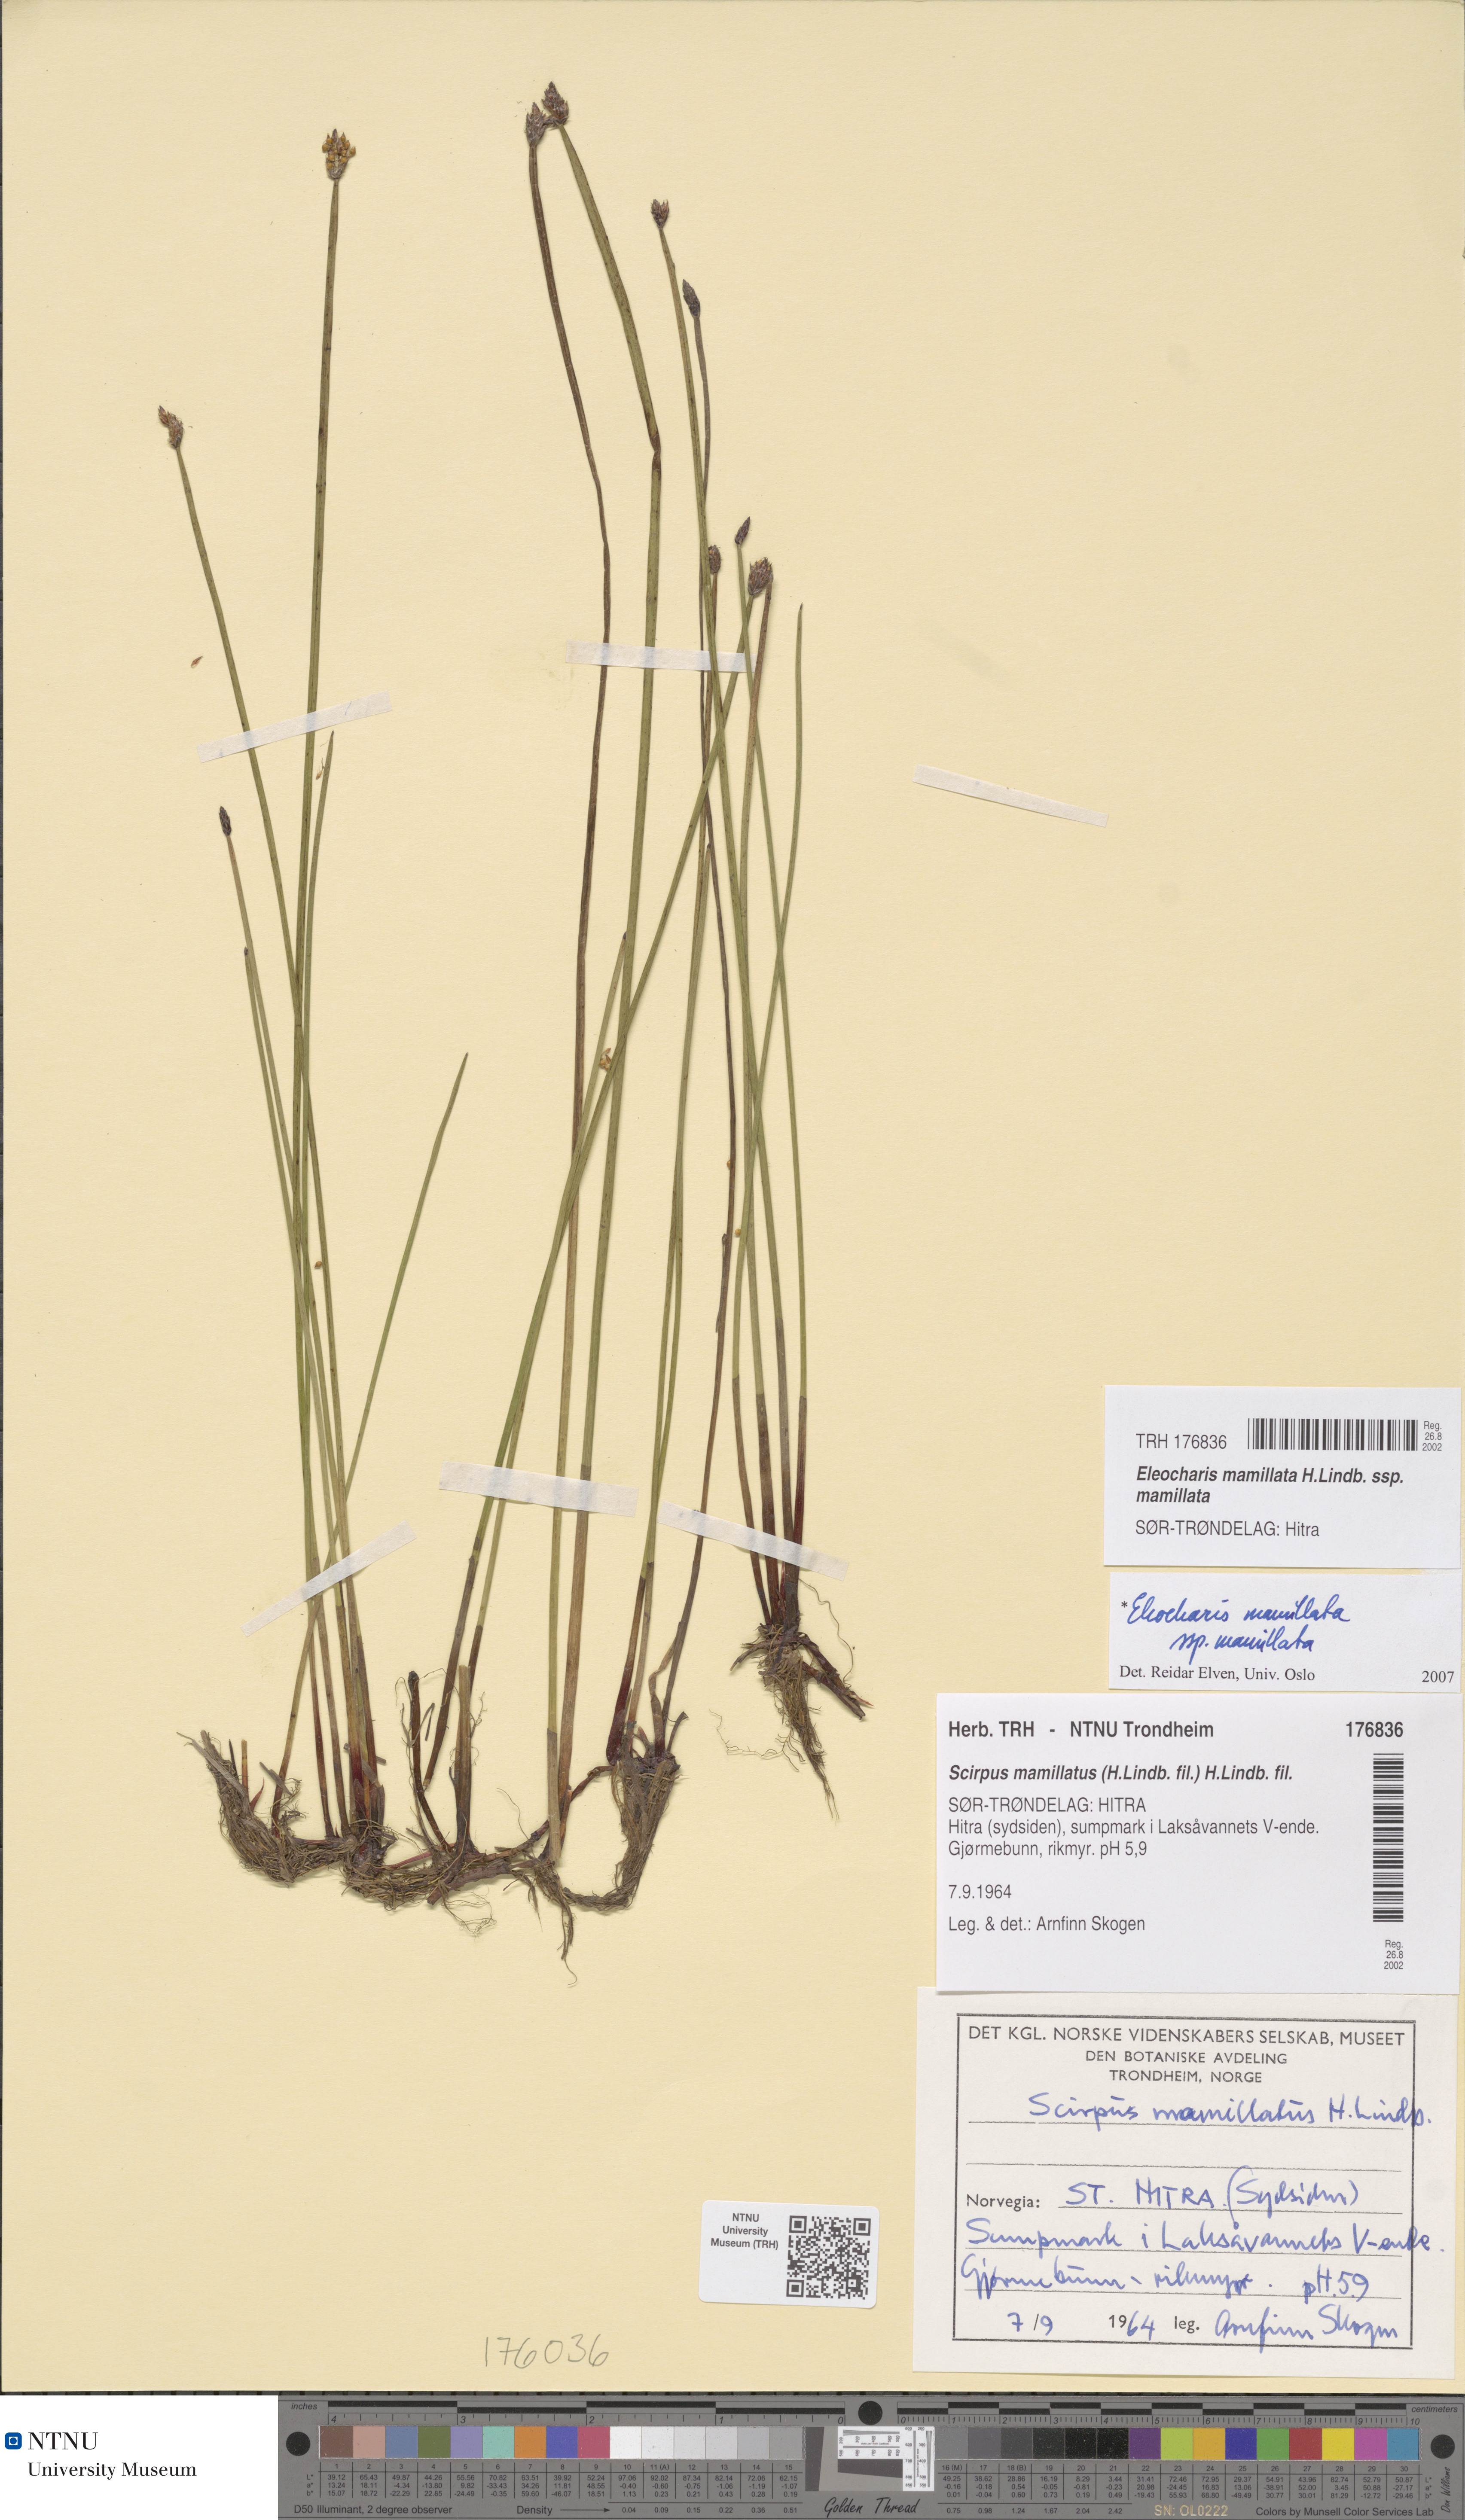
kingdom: Plantae
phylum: Tracheophyta
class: Liliopsida
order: Poales
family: Cyperaceae
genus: Eleocharis
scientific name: Eleocharis mamillata
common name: Northern spike-rush
